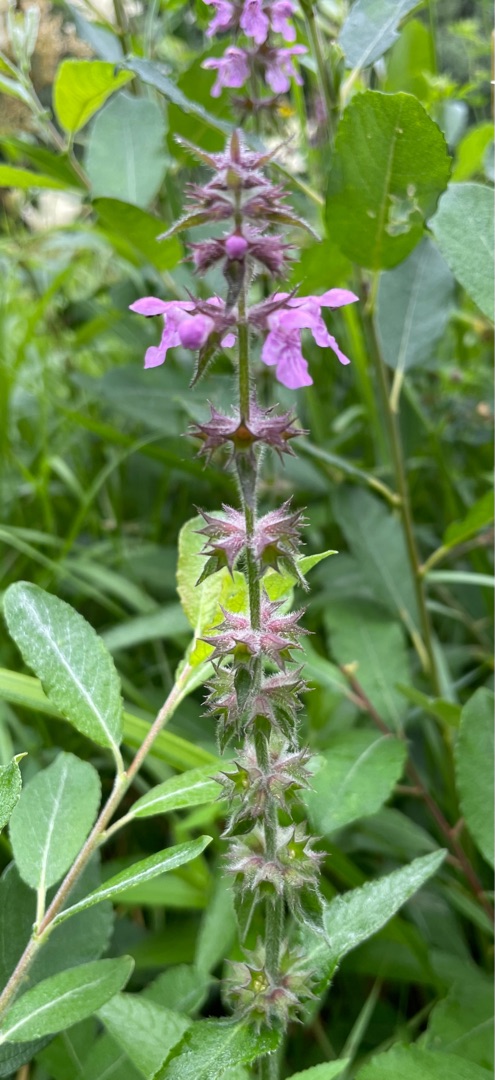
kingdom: Plantae
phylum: Tracheophyta
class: Magnoliopsida
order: Lamiales
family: Lamiaceae
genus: Stachys
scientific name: Stachys palustris
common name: Kær-galtetand
